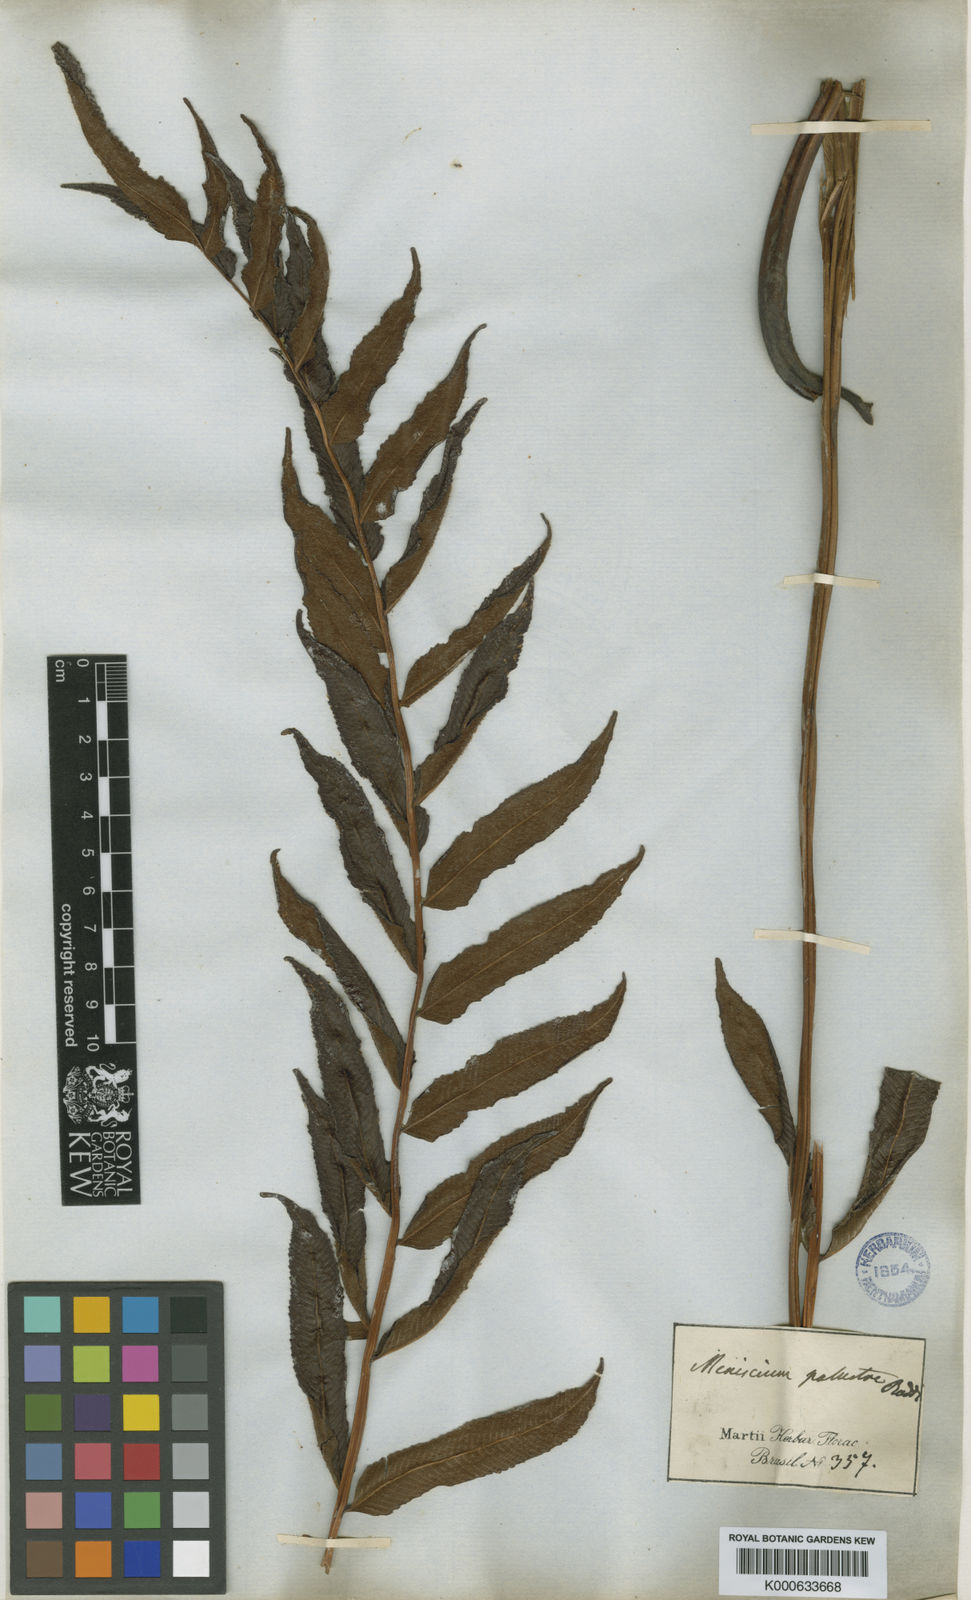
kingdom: Plantae
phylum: Tracheophyta
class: Polypodiopsida
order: Polypodiales
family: Thelypteridaceae
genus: Meniscium
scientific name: Meniscium
